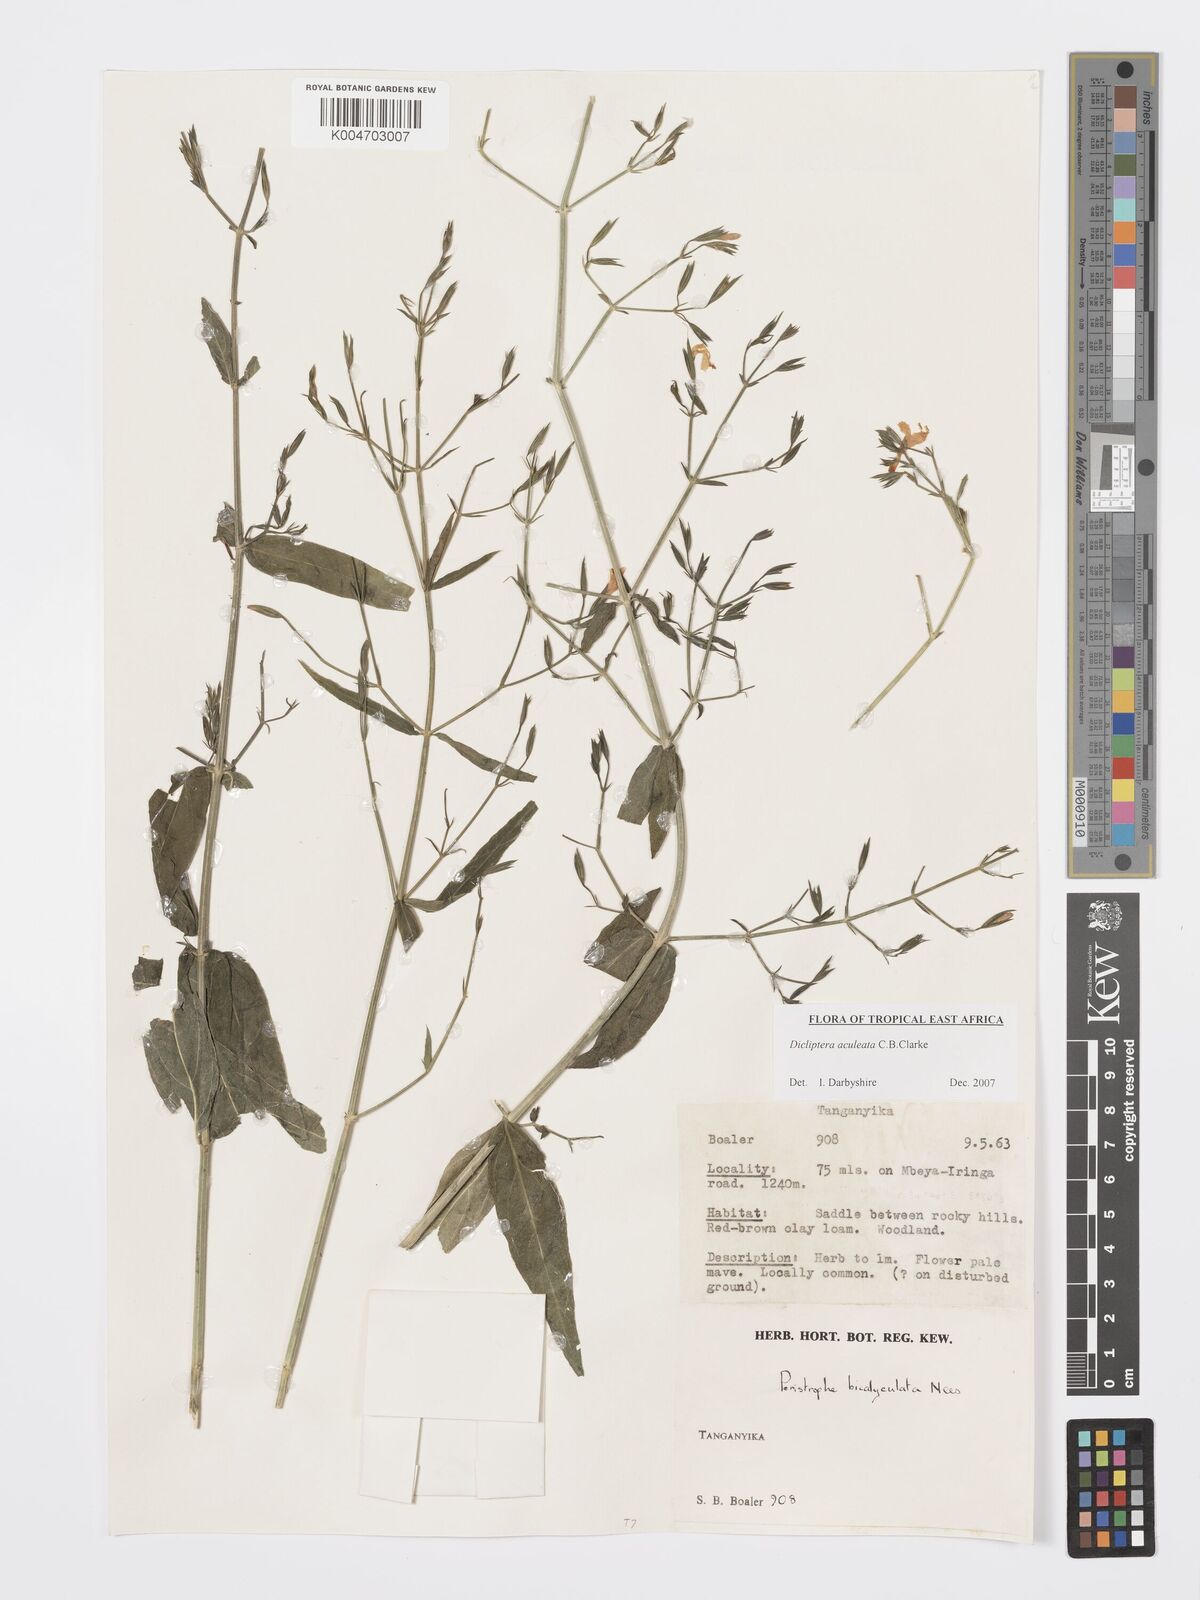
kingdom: Plantae
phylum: Tracheophyta
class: Magnoliopsida
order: Lamiales
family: Acanthaceae
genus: Dicliptera
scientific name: Dicliptera hensii
